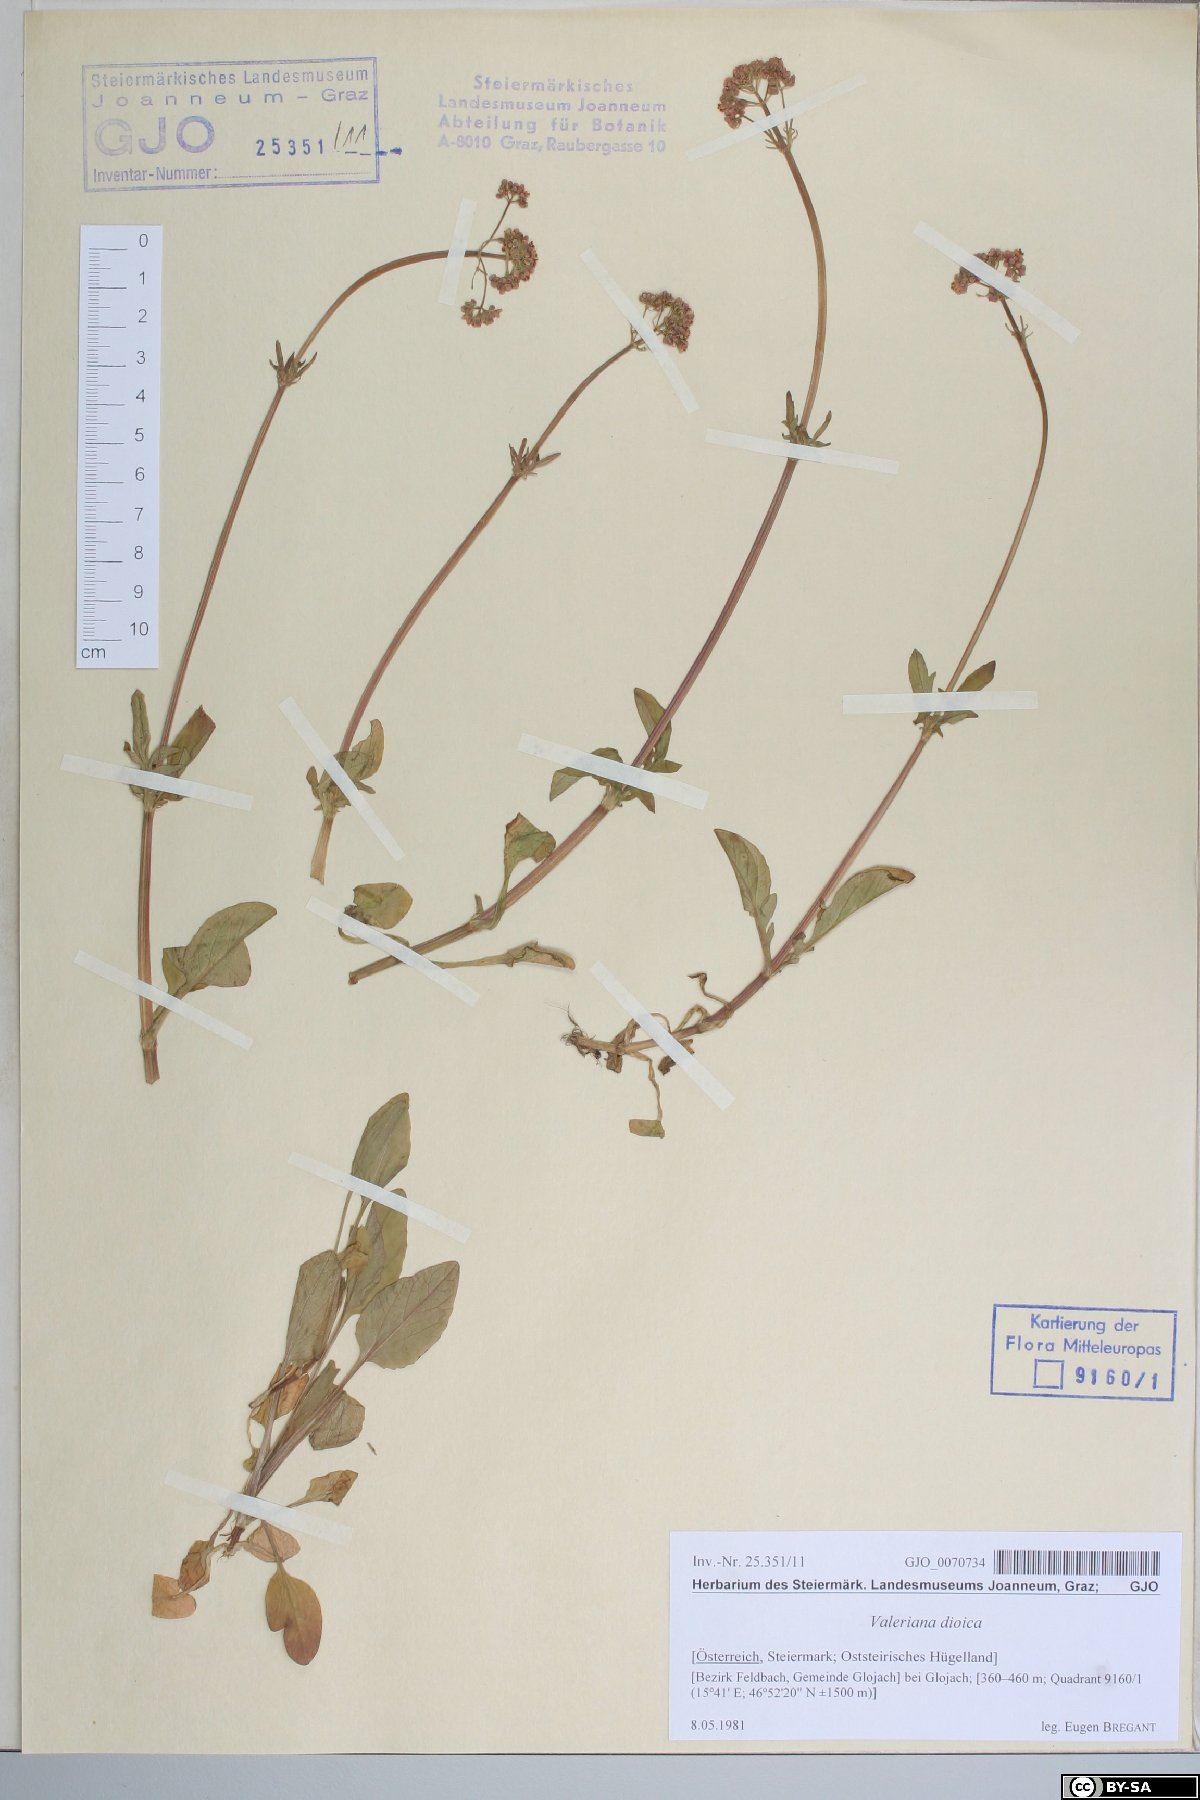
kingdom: Plantae
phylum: Tracheophyta
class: Magnoliopsida
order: Dipsacales
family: Caprifoliaceae
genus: Valeriana
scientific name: Valeriana dioica
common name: Marsh valerian
